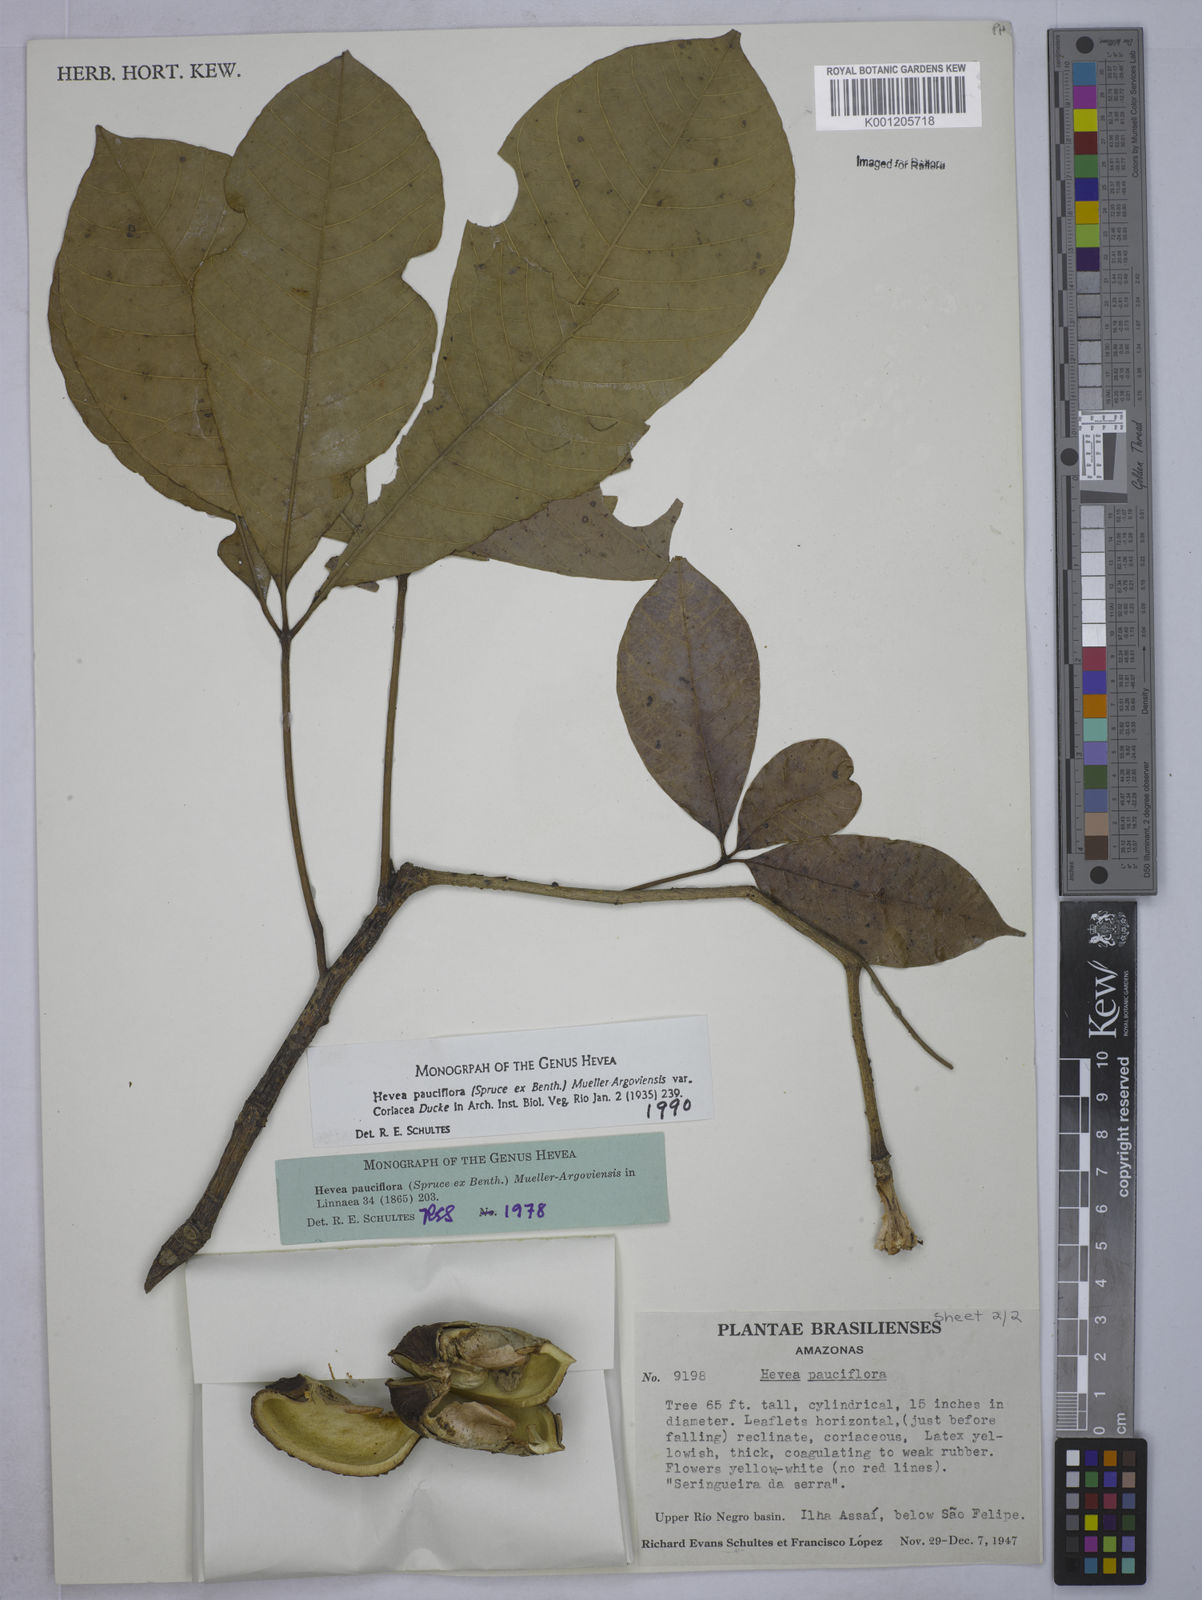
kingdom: Plantae
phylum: Tracheophyta
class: Magnoliopsida
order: Malpighiales
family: Euphorbiaceae
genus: Hevea
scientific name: Hevea pauciflora
